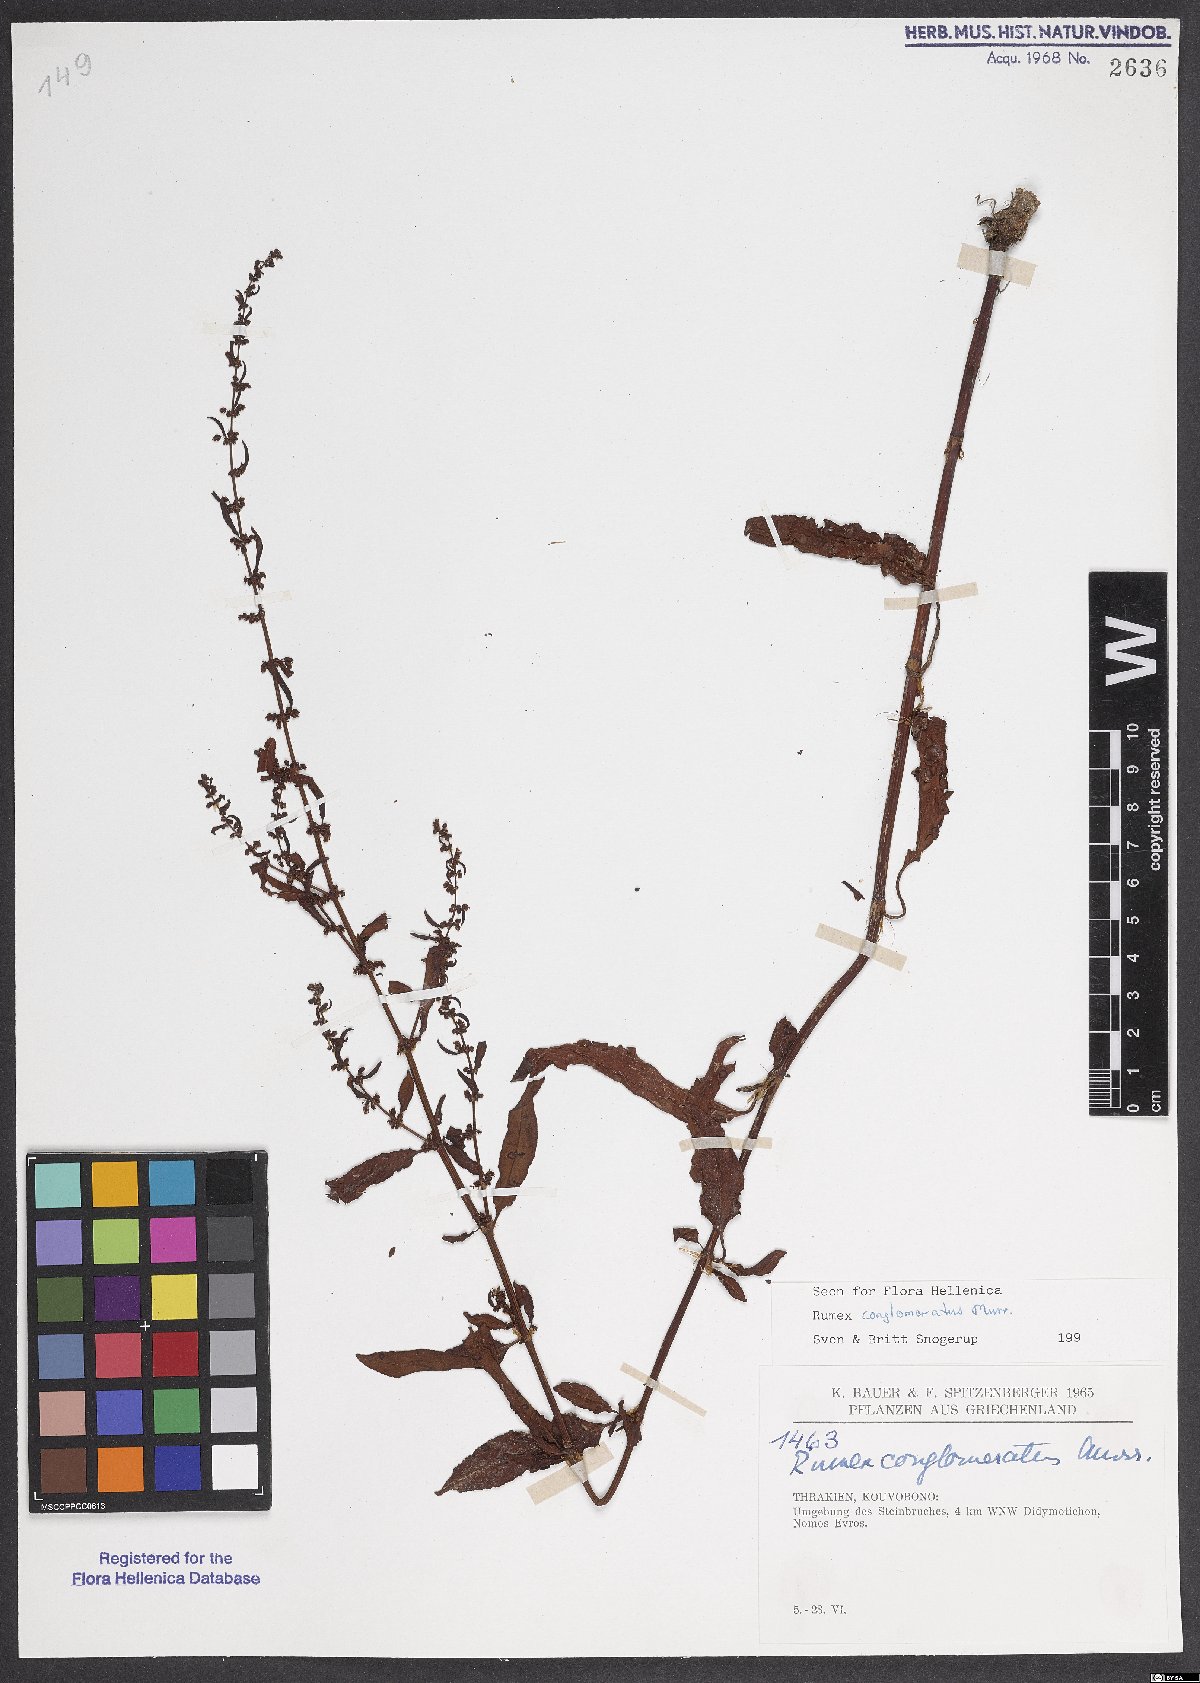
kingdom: Plantae
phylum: Tracheophyta
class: Magnoliopsida
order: Caryophyllales
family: Polygonaceae
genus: Rumex
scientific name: Rumex conglomeratus
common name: Clustered dock
